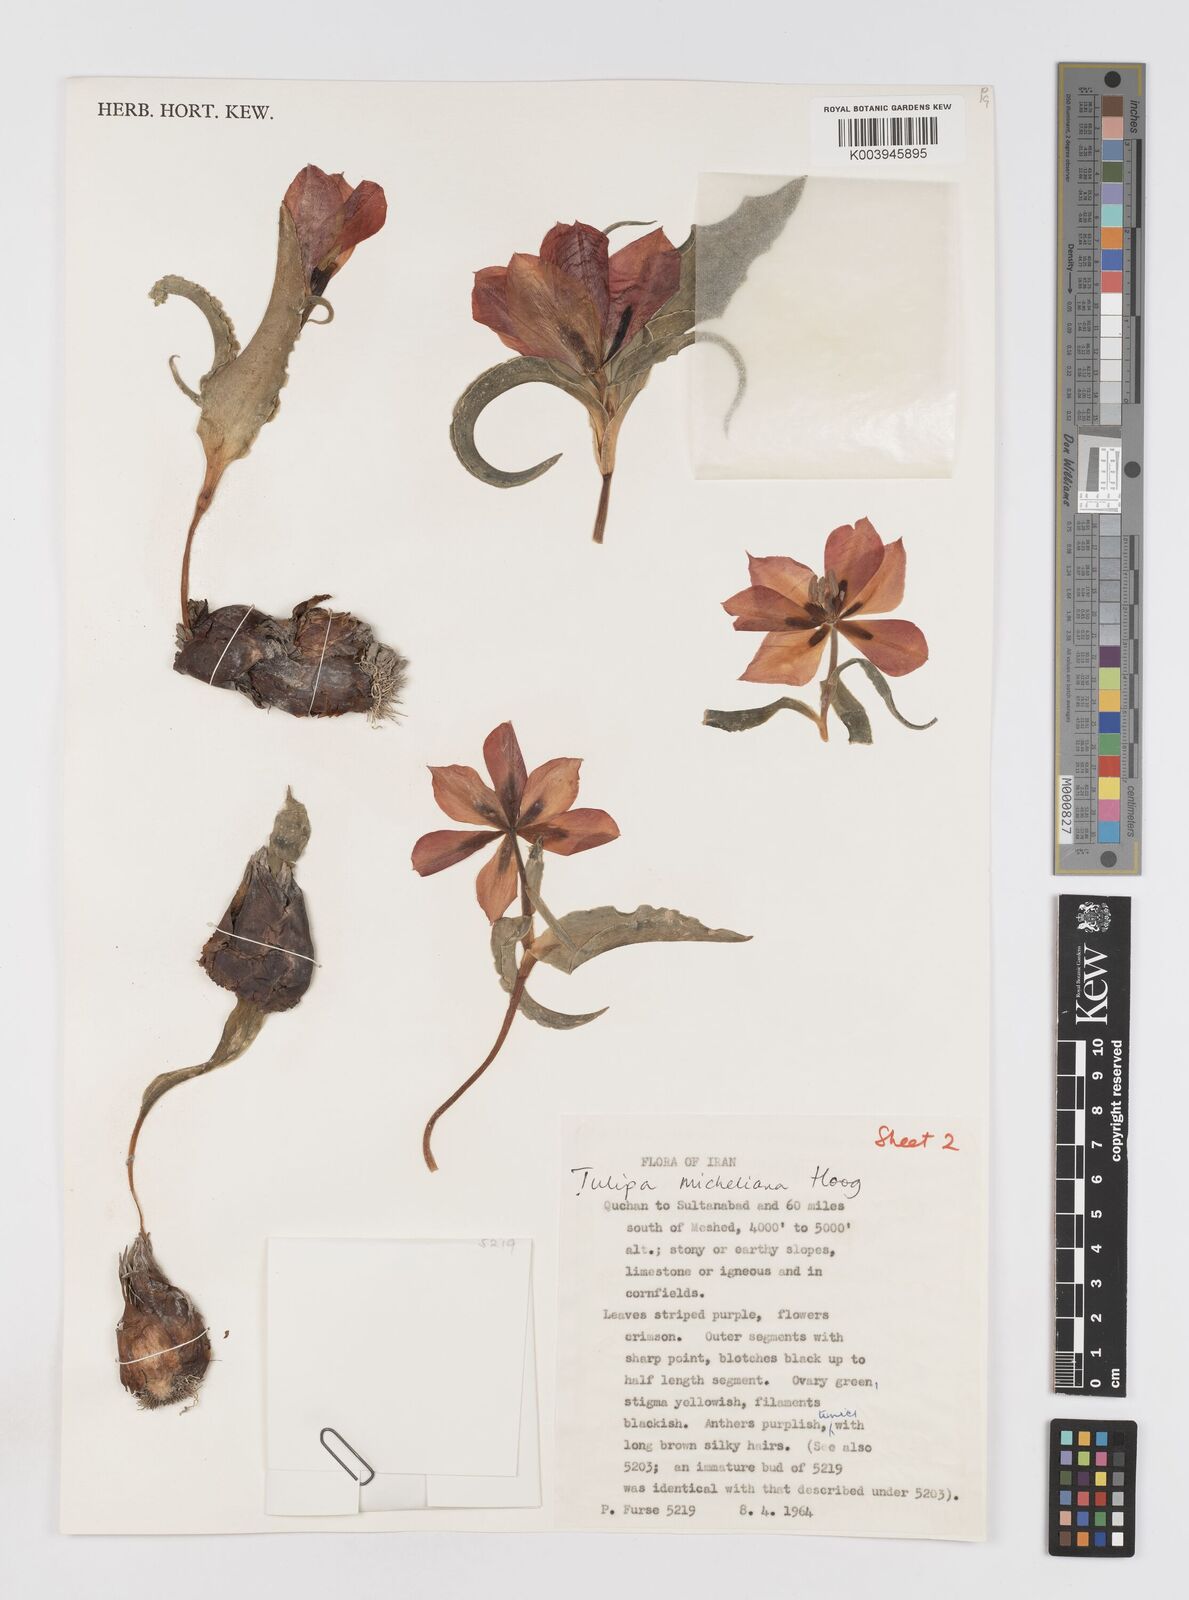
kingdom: Plantae
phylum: Tracheophyta
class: Liliopsida
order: Liliales
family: Liliaceae
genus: Tulipa
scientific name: Tulipa undulatifolia
